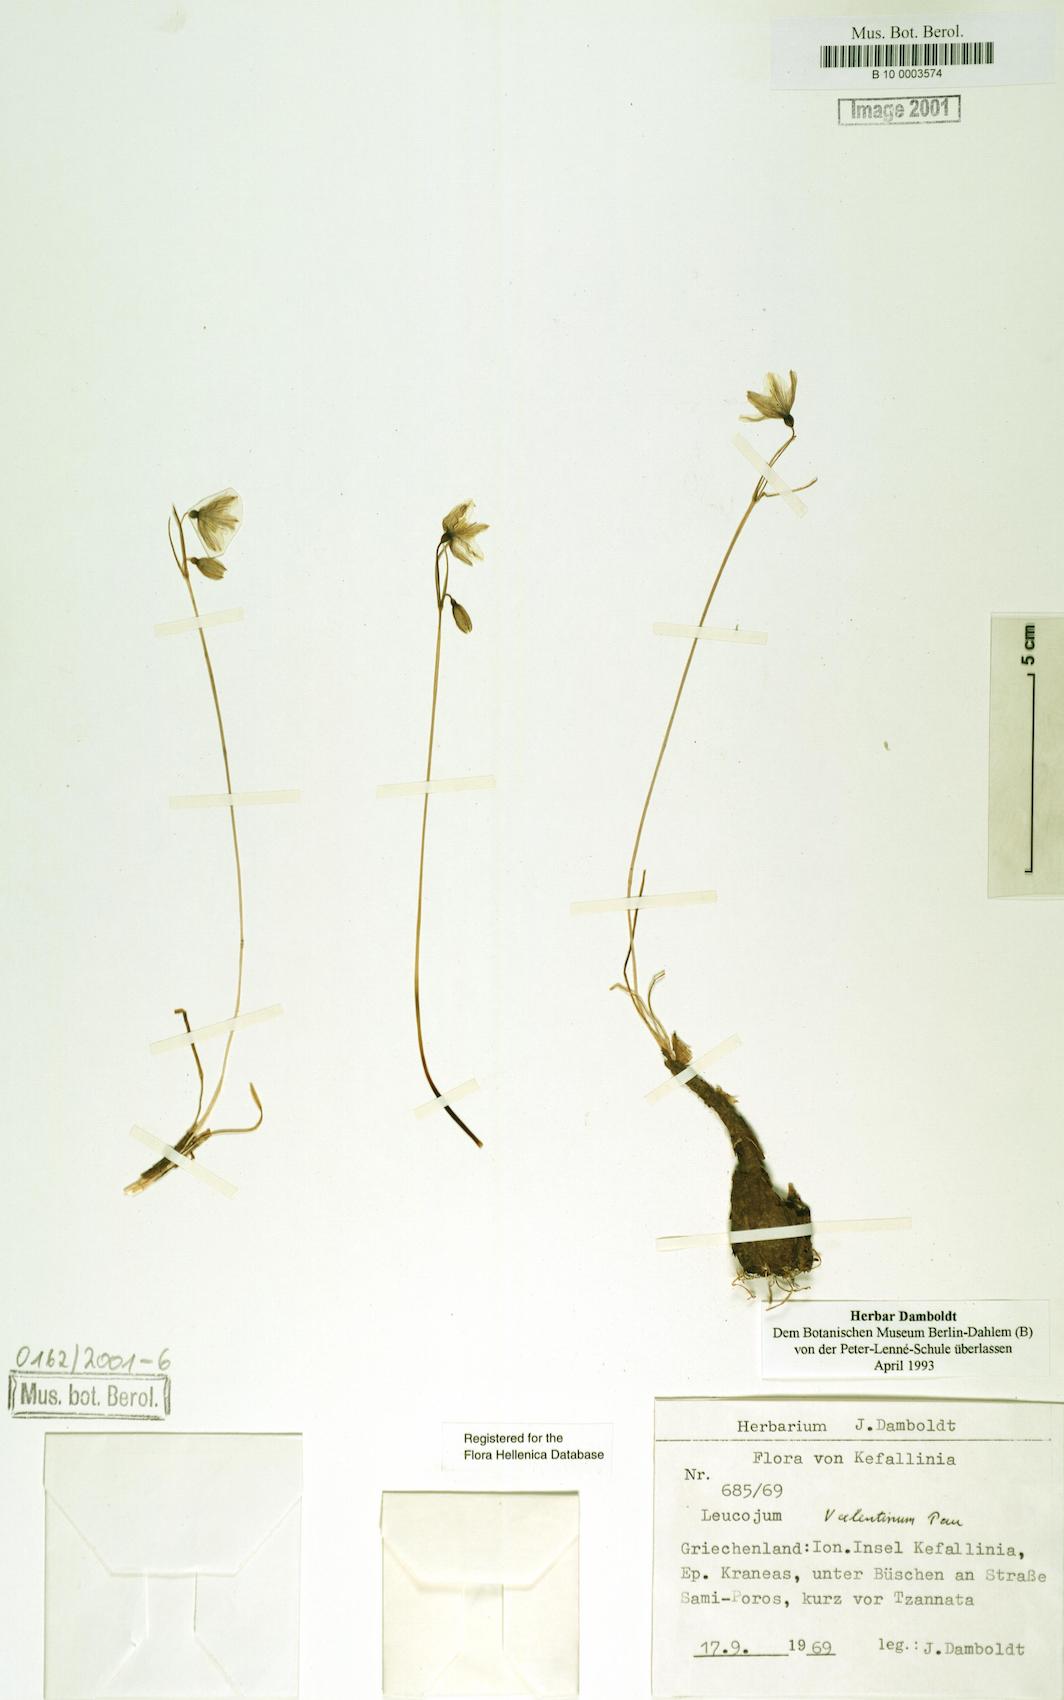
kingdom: Plantae
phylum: Tracheophyta
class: Liliopsida
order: Asparagales
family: Amaryllidaceae
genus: Acis
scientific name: Acis valentina
